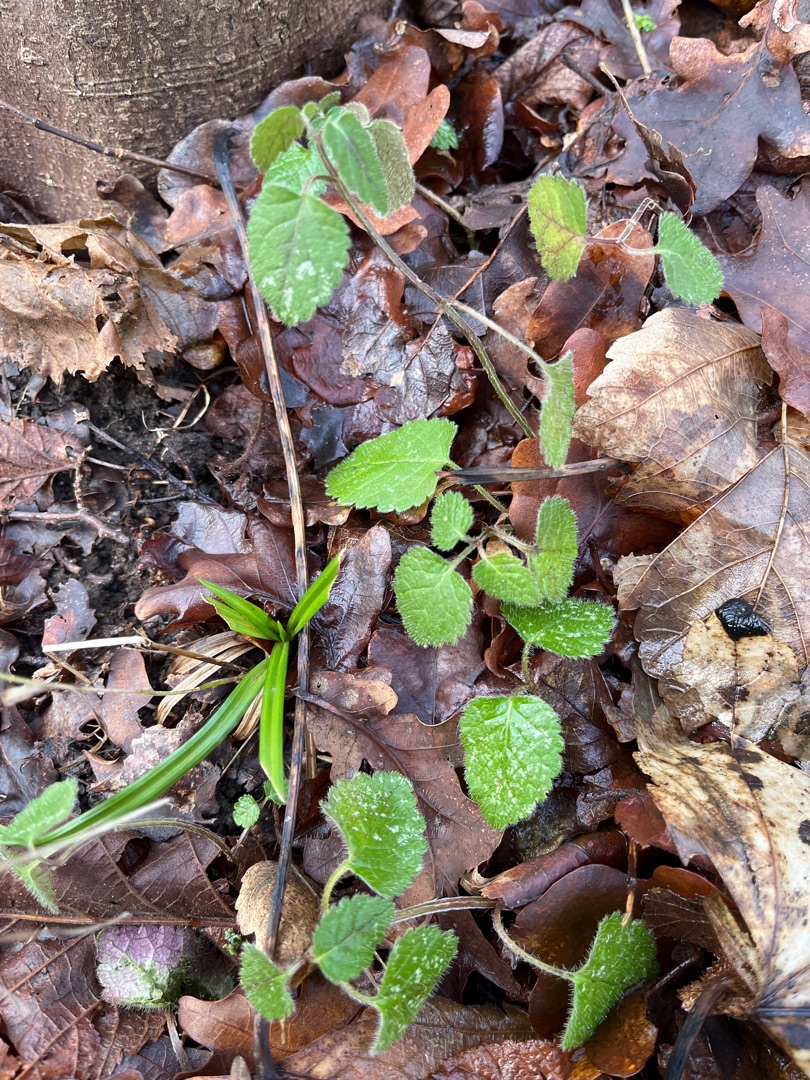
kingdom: Plantae
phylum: Tracheophyta
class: Magnoliopsida
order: Lamiales
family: Lamiaceae
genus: Lamium
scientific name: Lamium galeobdolon
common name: Guldnælde
